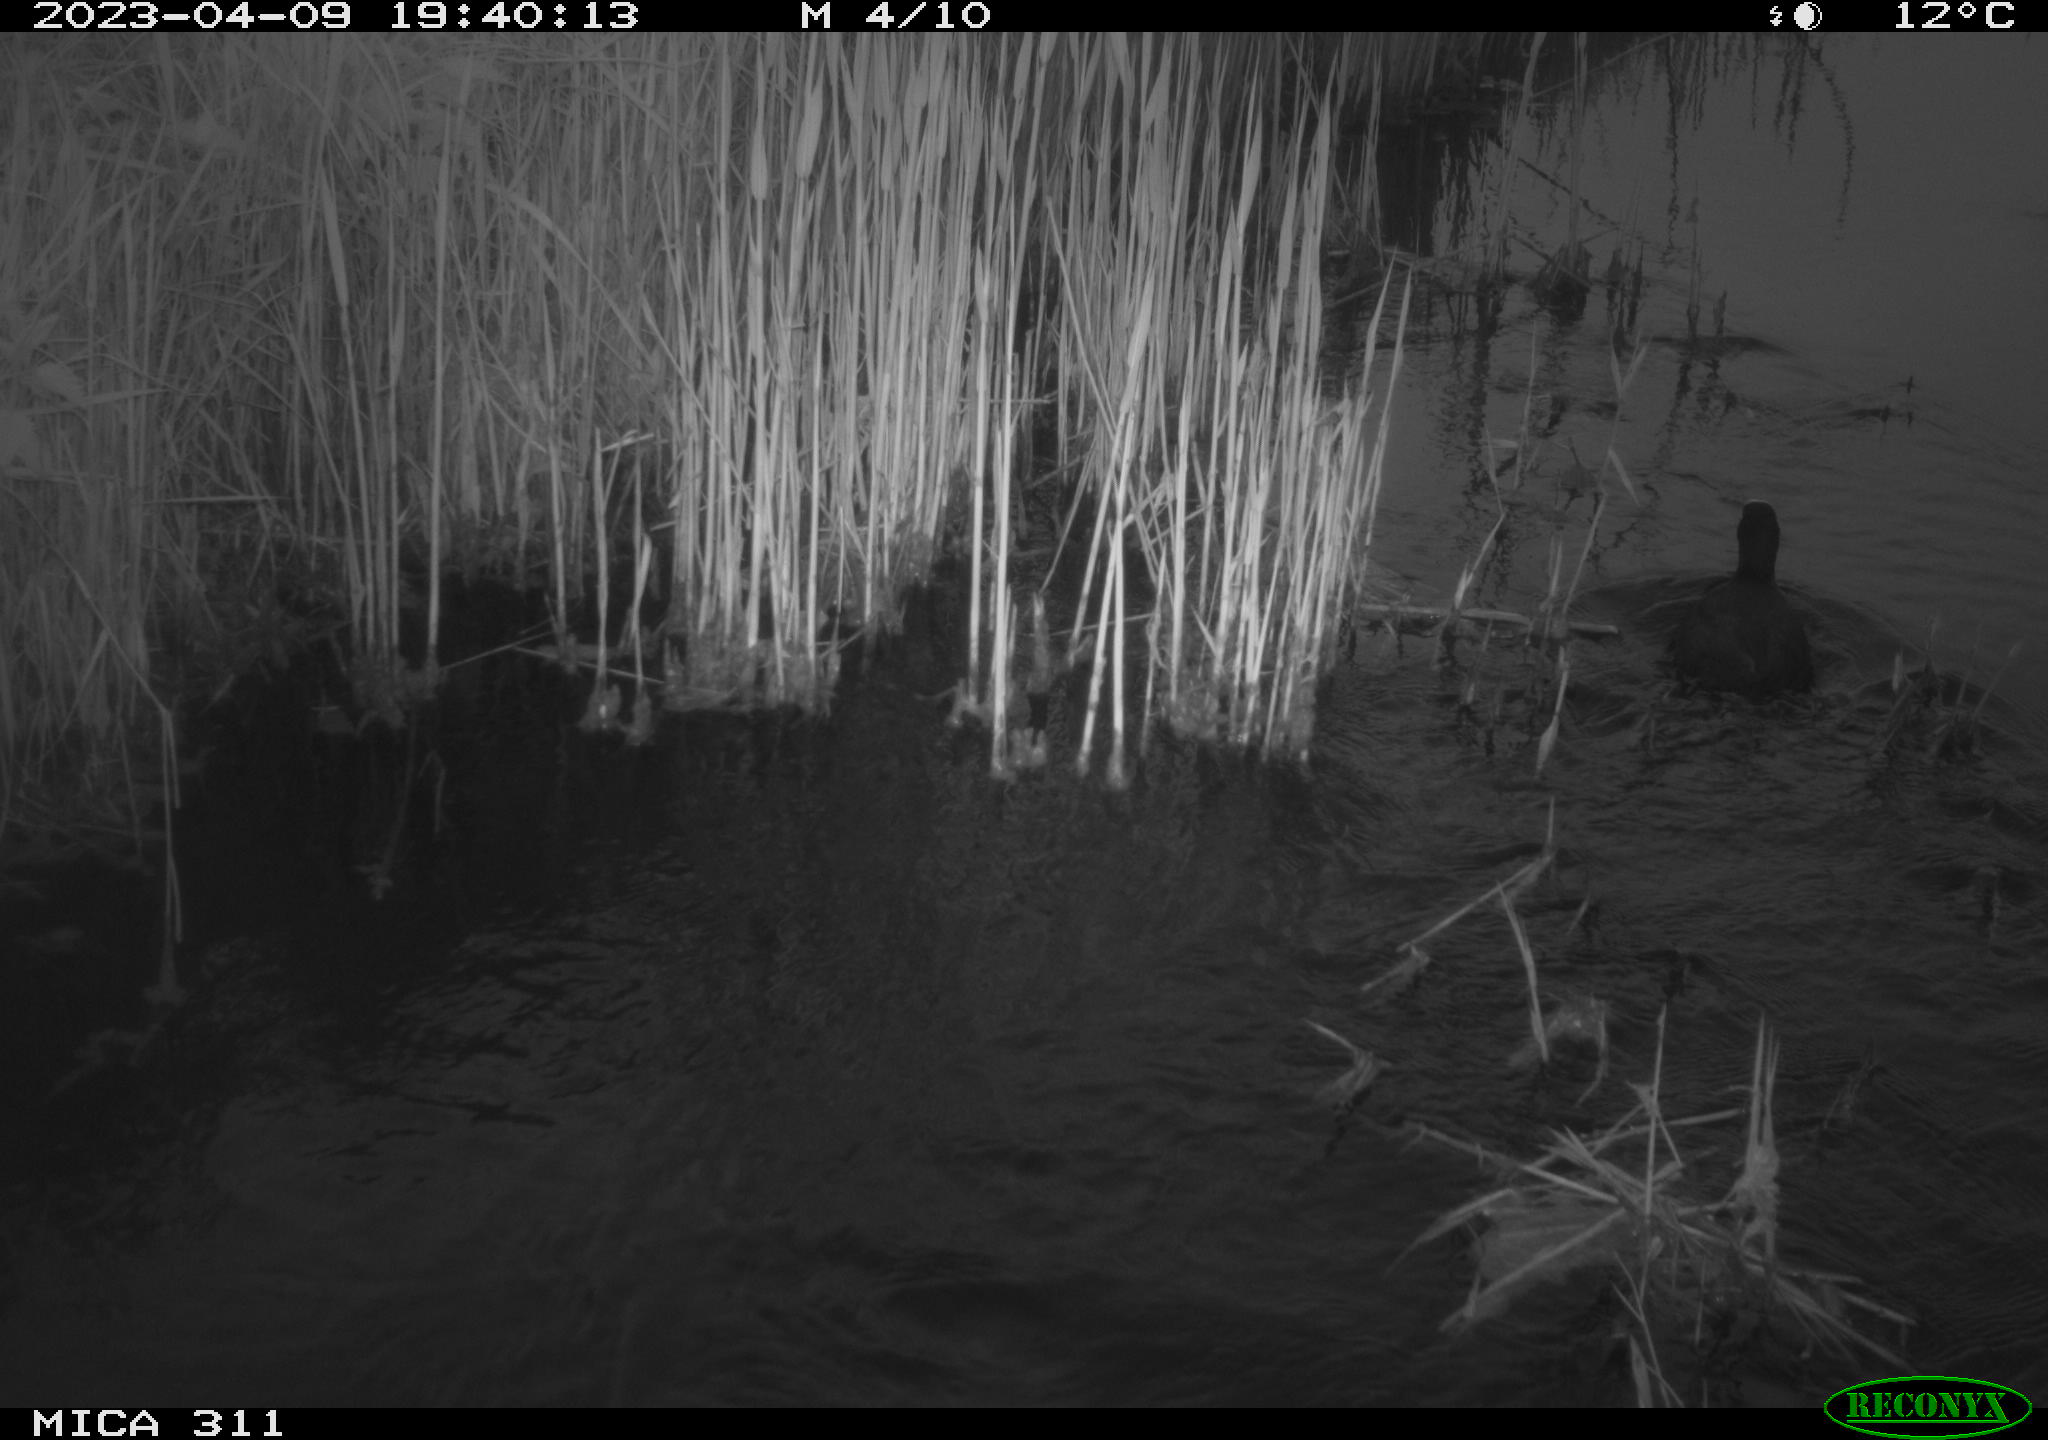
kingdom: Animalia
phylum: Chordata
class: Aves
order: Gruiformes
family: Rallidae
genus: Fulica
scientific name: Fulica atra
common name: Eurasian coot
